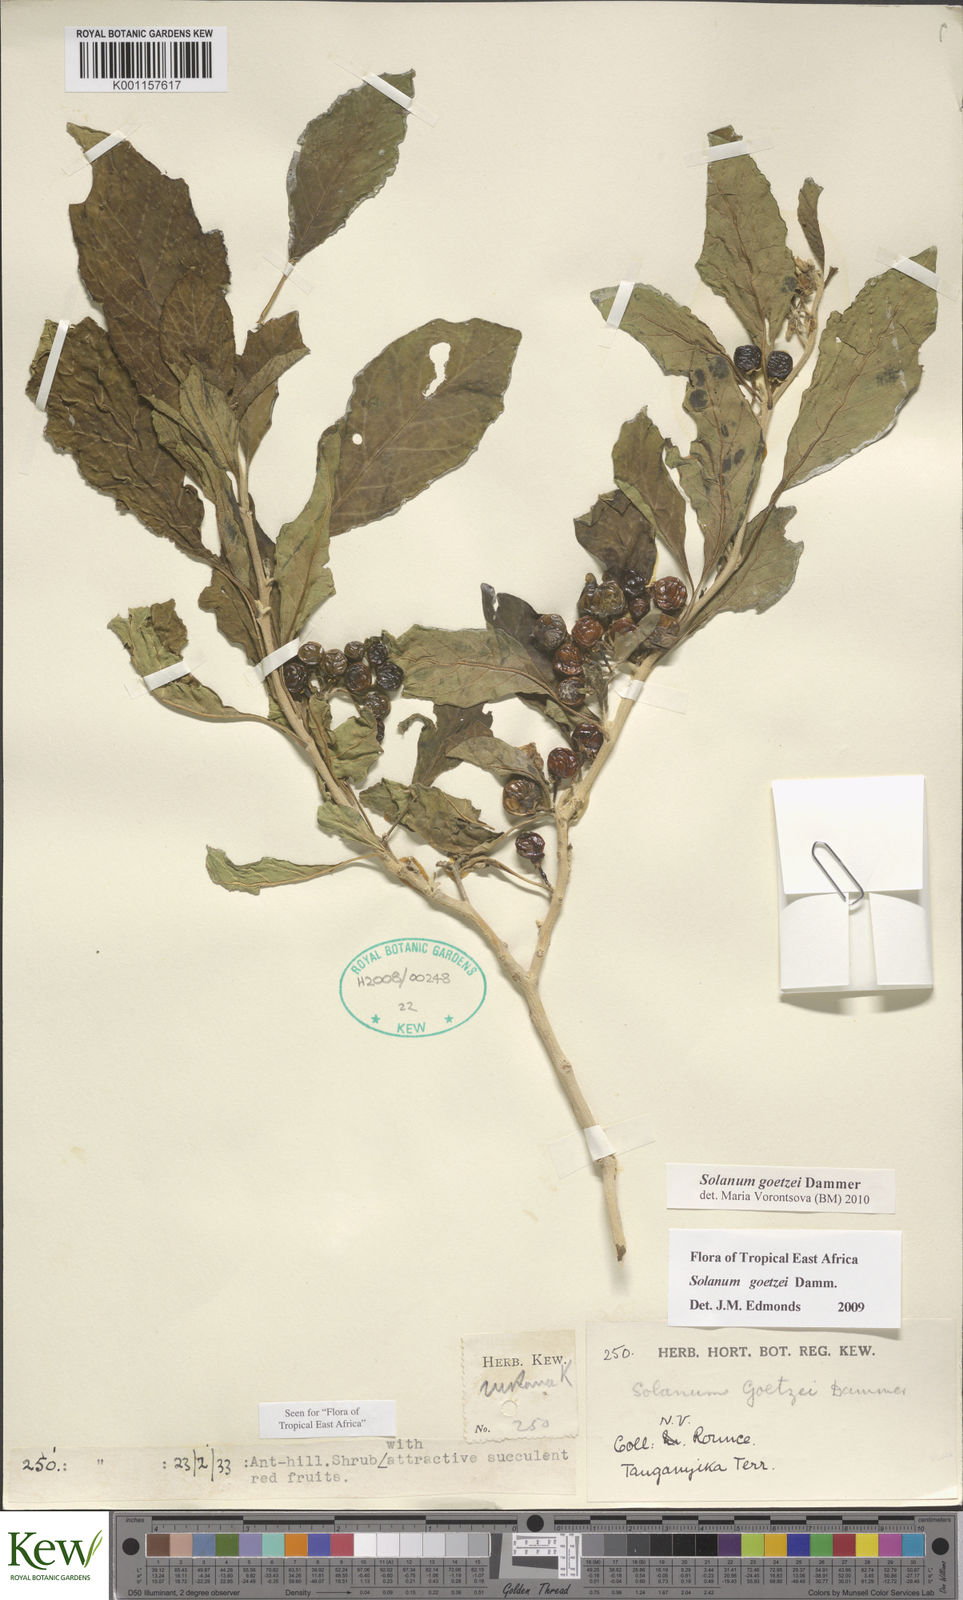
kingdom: Plantae
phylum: Tracheophyta
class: Magnoliopsida
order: Solanales
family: Solanaceae
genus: Solanum
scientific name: Solanum goetzei
